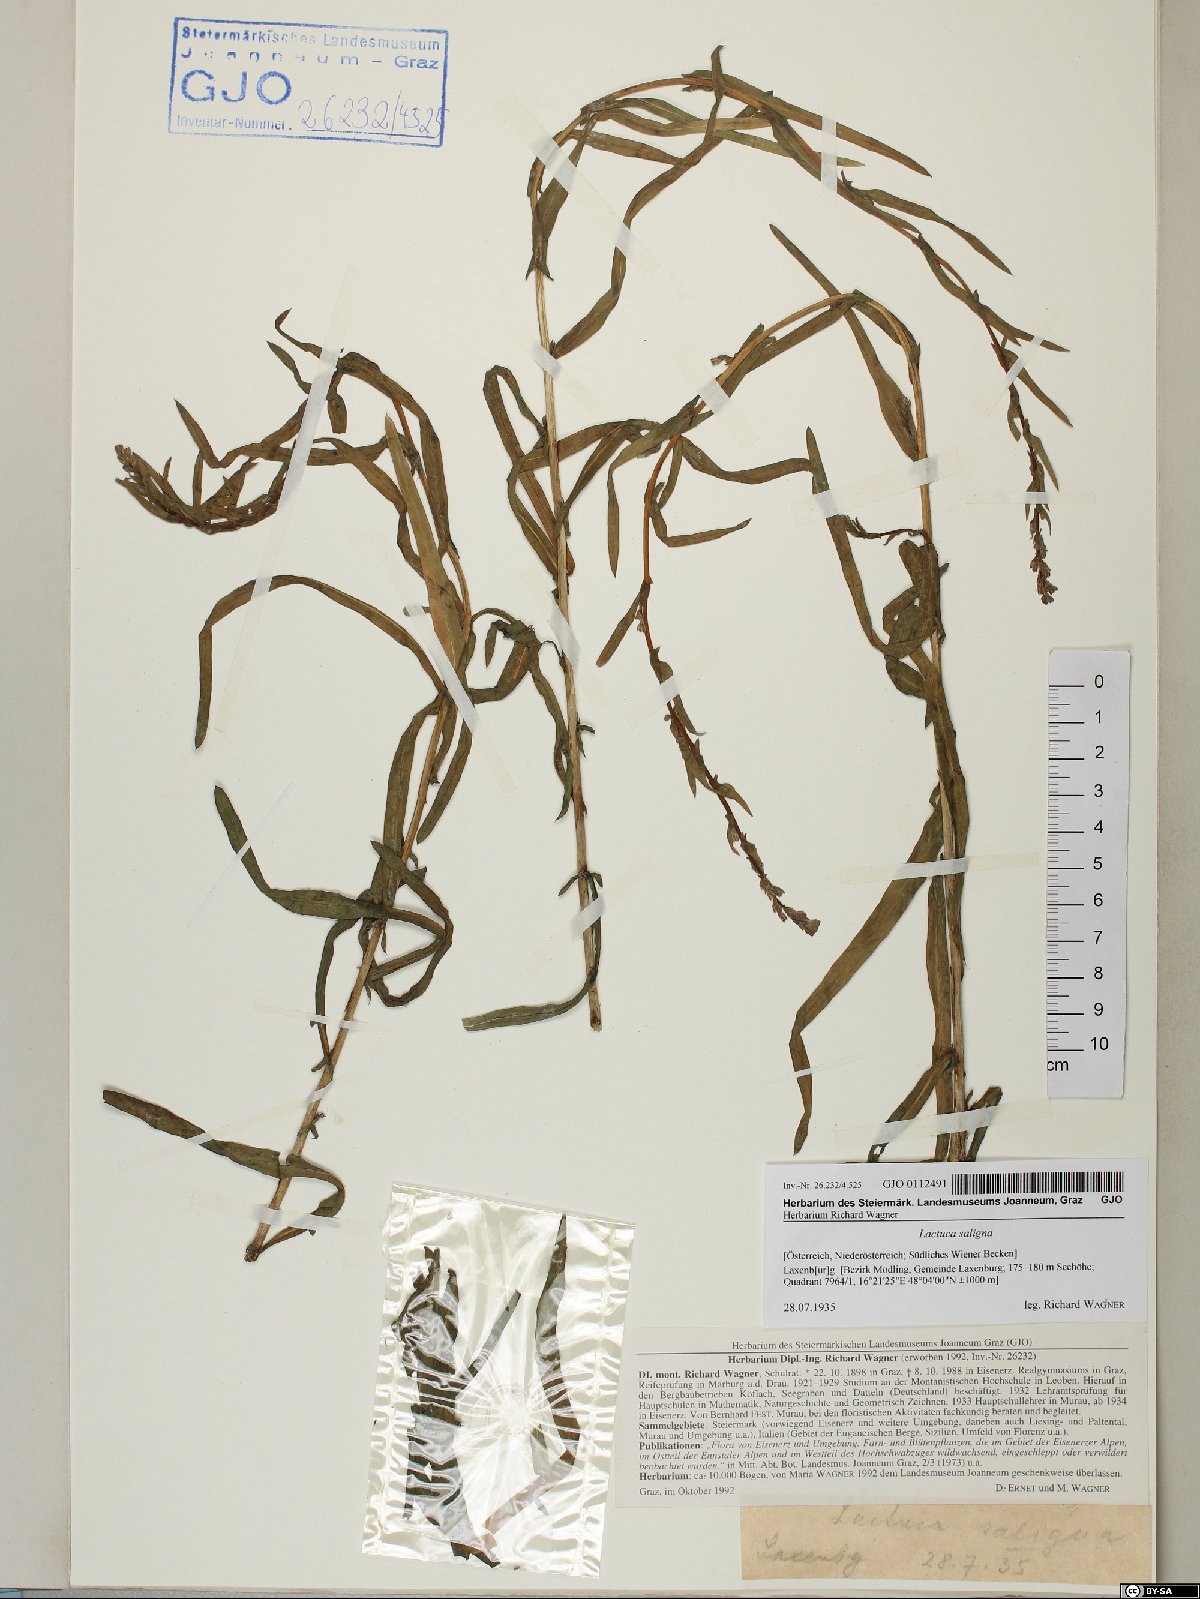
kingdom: Plantae
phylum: Tracheophyta
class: Magnoliopsida
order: Asterales
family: Asteraceae
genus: Lactuca
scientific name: Lactuca saligna
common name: Wild lettuce
